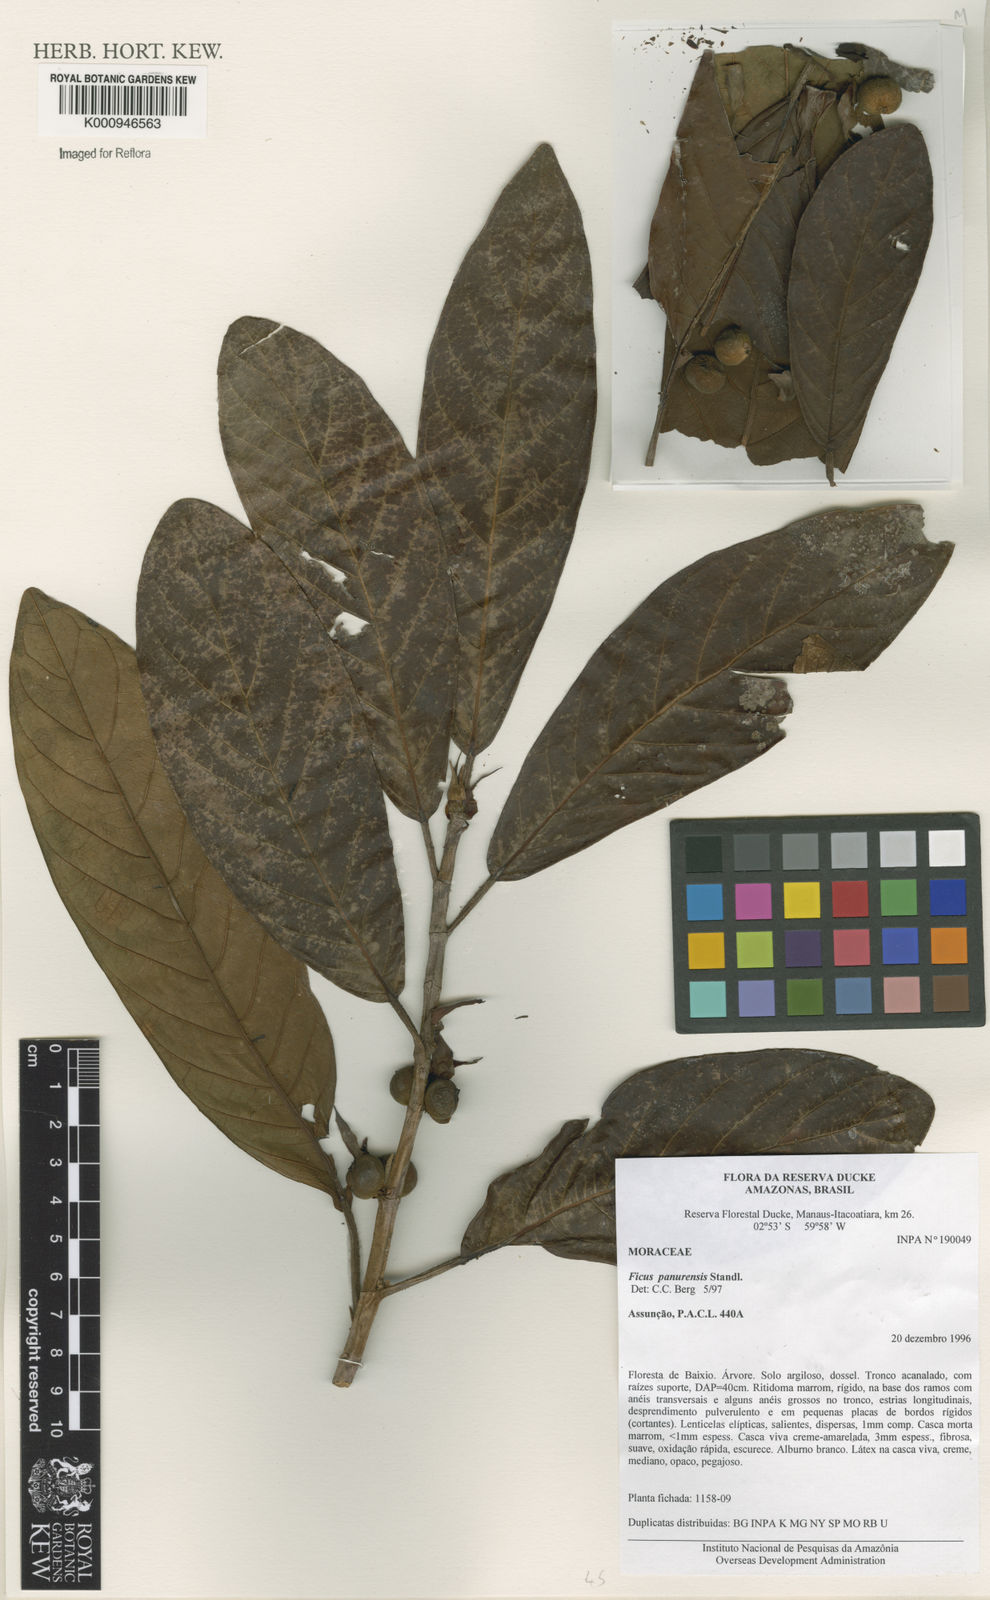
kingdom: Plantae
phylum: Tracheophyta
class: Magnoliopsida
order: Rosales
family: Moraceae
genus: Ficus
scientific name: Ficus panurensis
